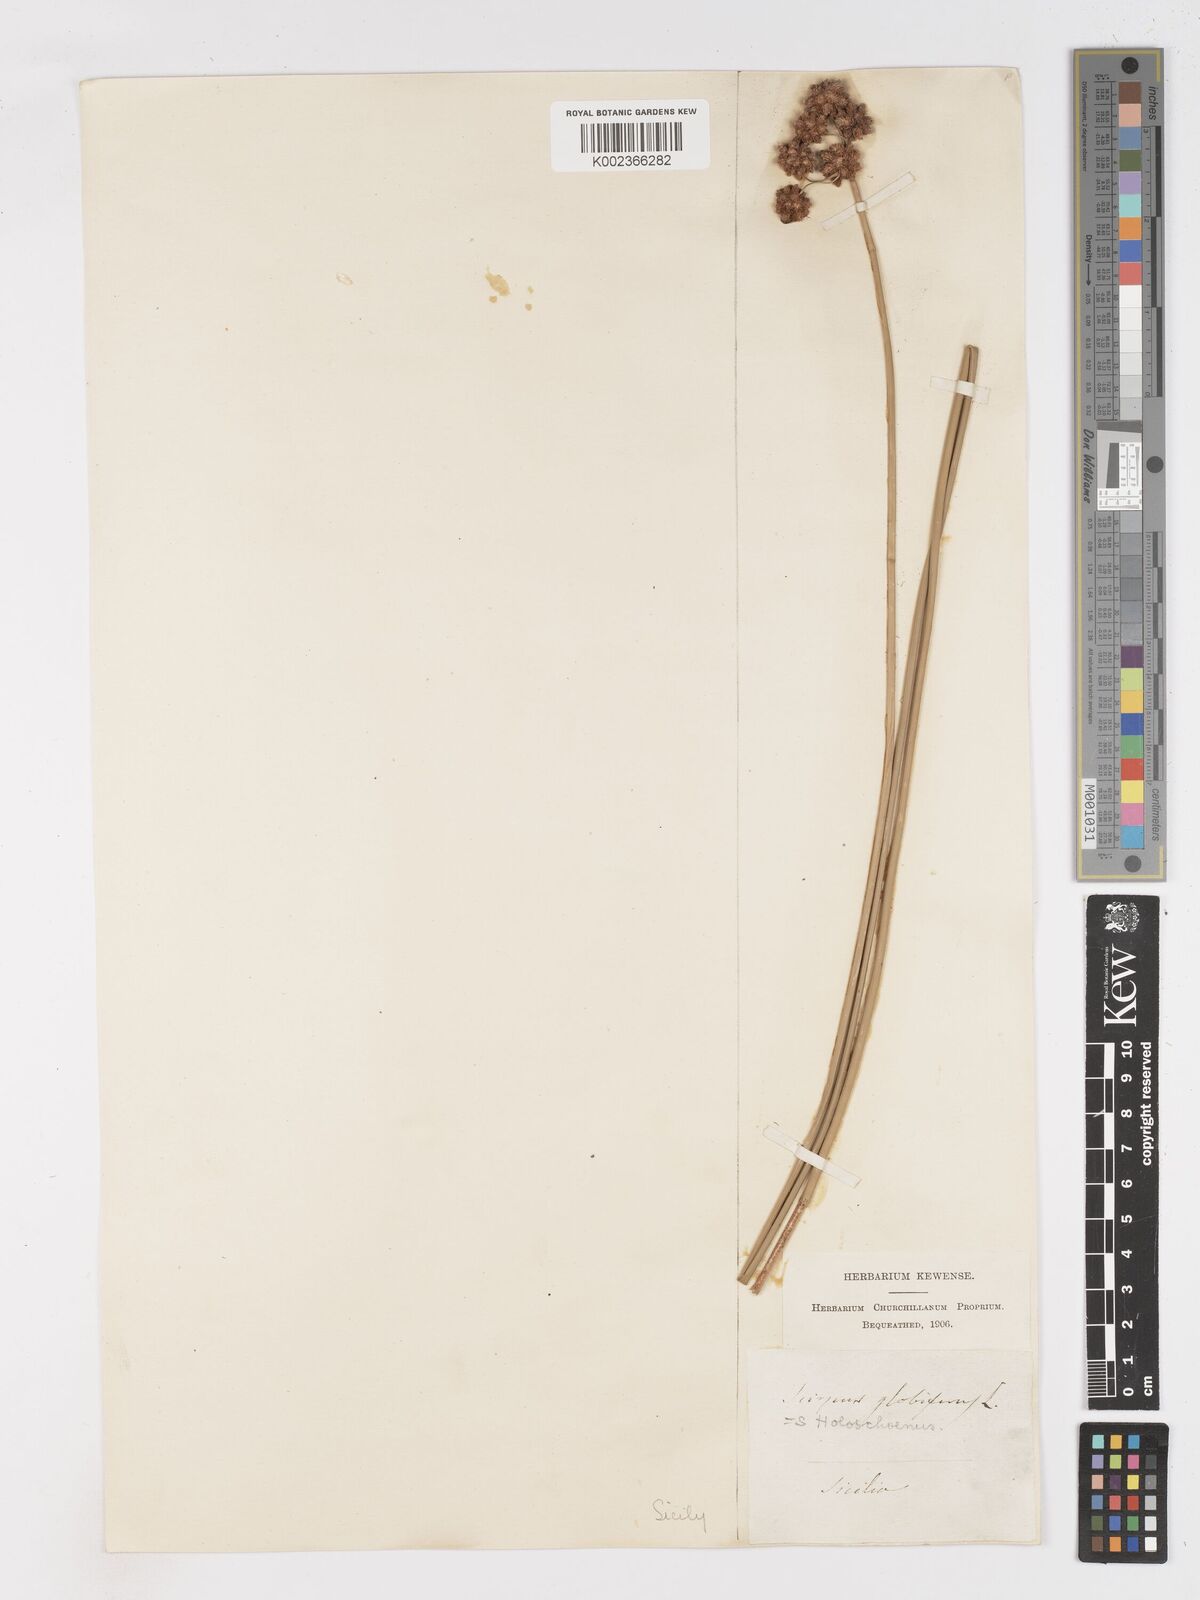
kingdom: Plantae
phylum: Tracheophyta
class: Liliopsida
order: Poales
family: Cyperaceae
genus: Scirpoides
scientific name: Scirpoides holoschoenus
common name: Round-headed club-rush
